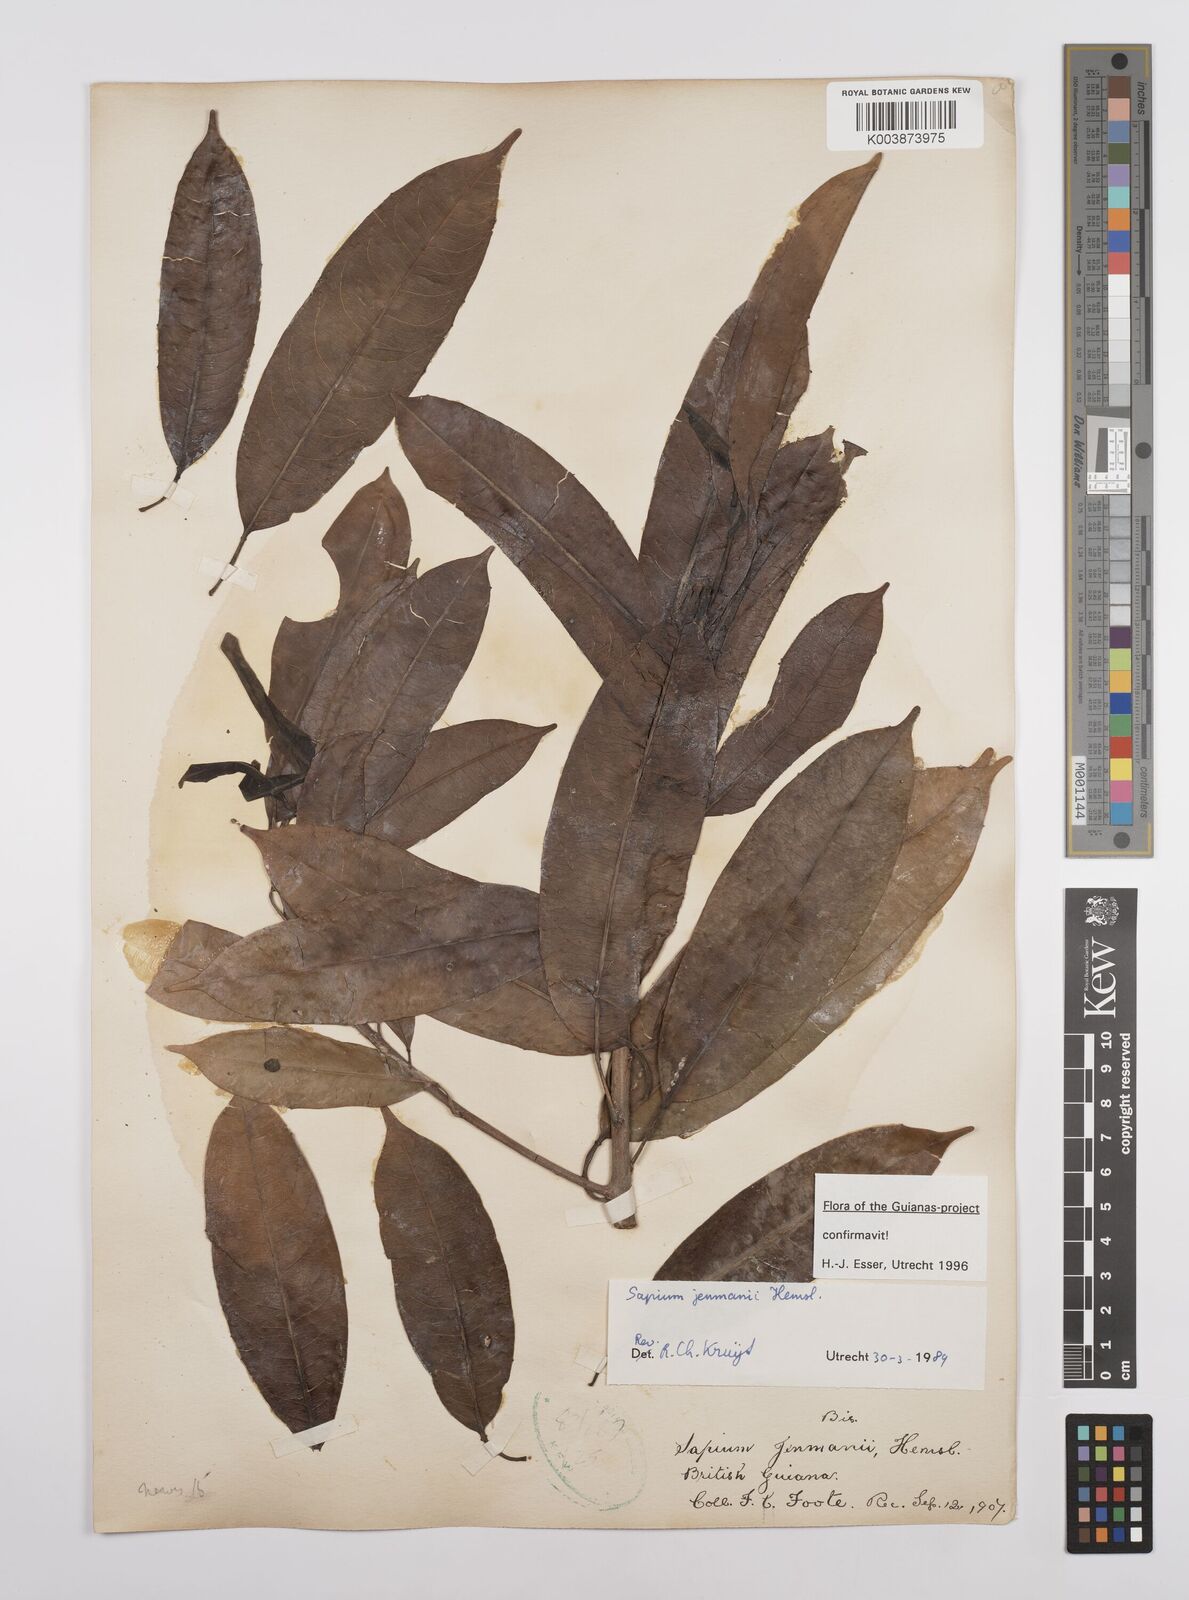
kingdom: Plantae
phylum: Tracheophyta
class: Magnoliopsida
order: Malpighiales
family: Euphorbiaceae
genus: Sapium
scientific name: Sapium jenmannii
